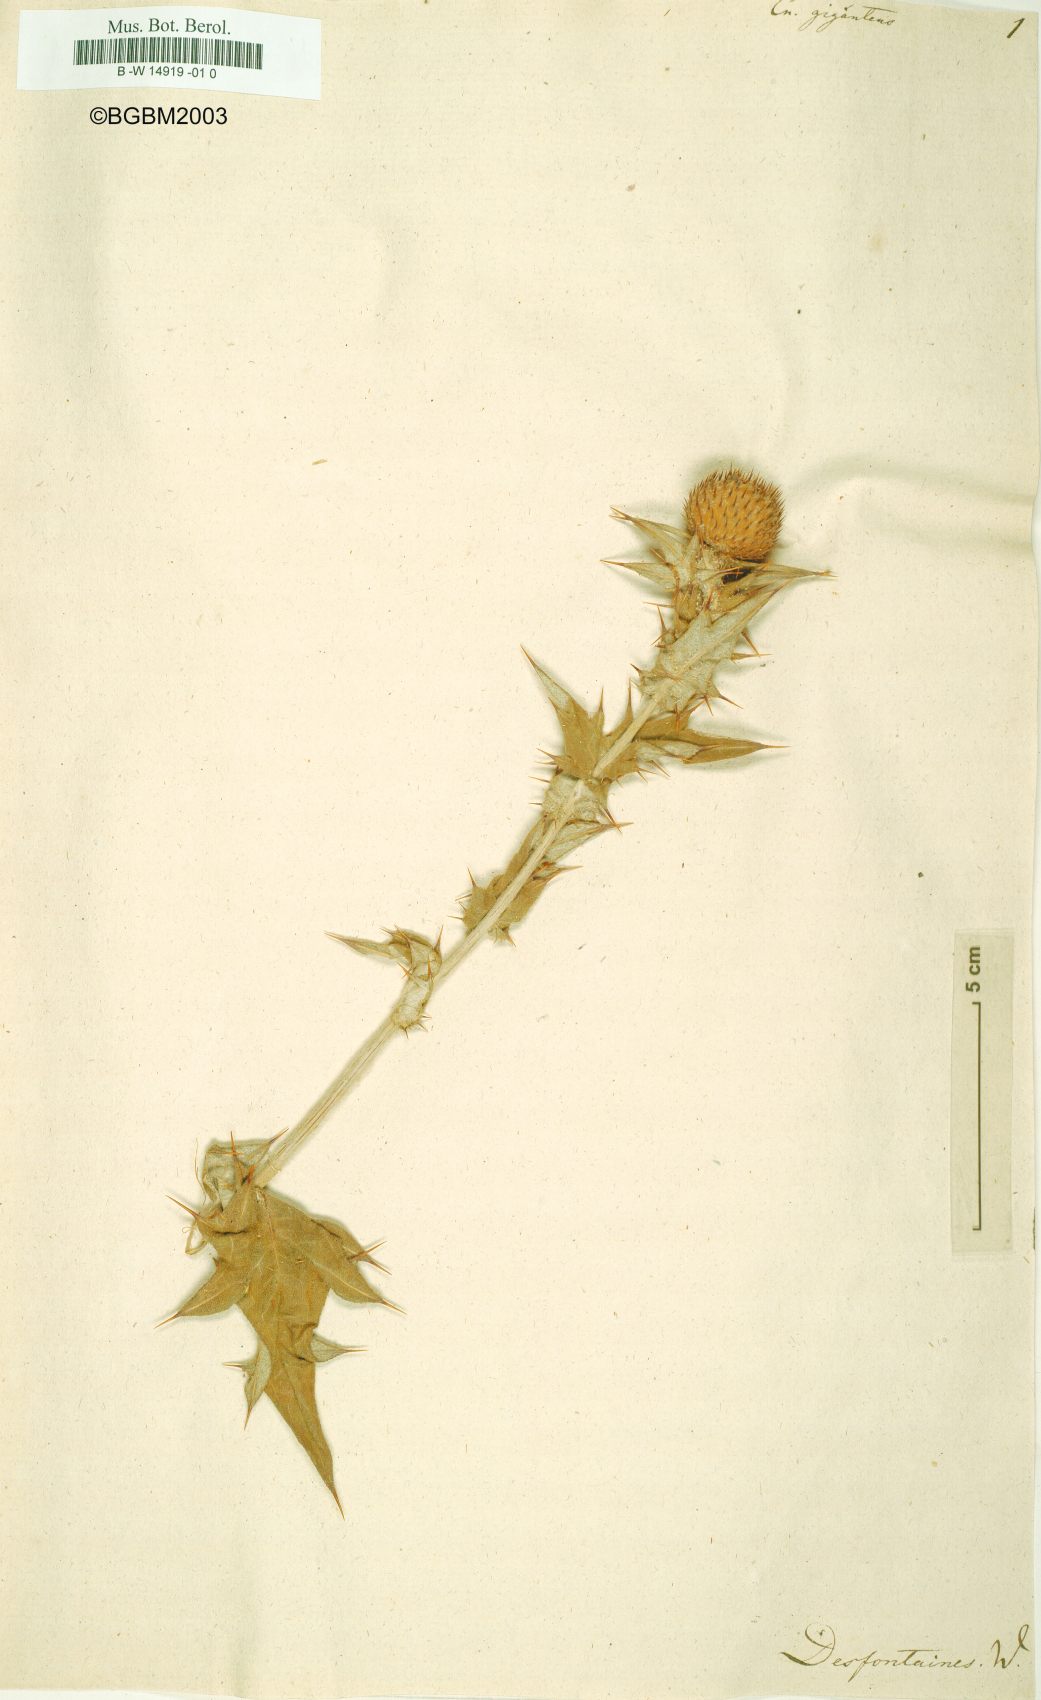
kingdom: Plantae
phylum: Tracheophyta
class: Magnoliopsida
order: Asterales
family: Asteraceae
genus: Lophiolepis
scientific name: Lophiolepis scabra
